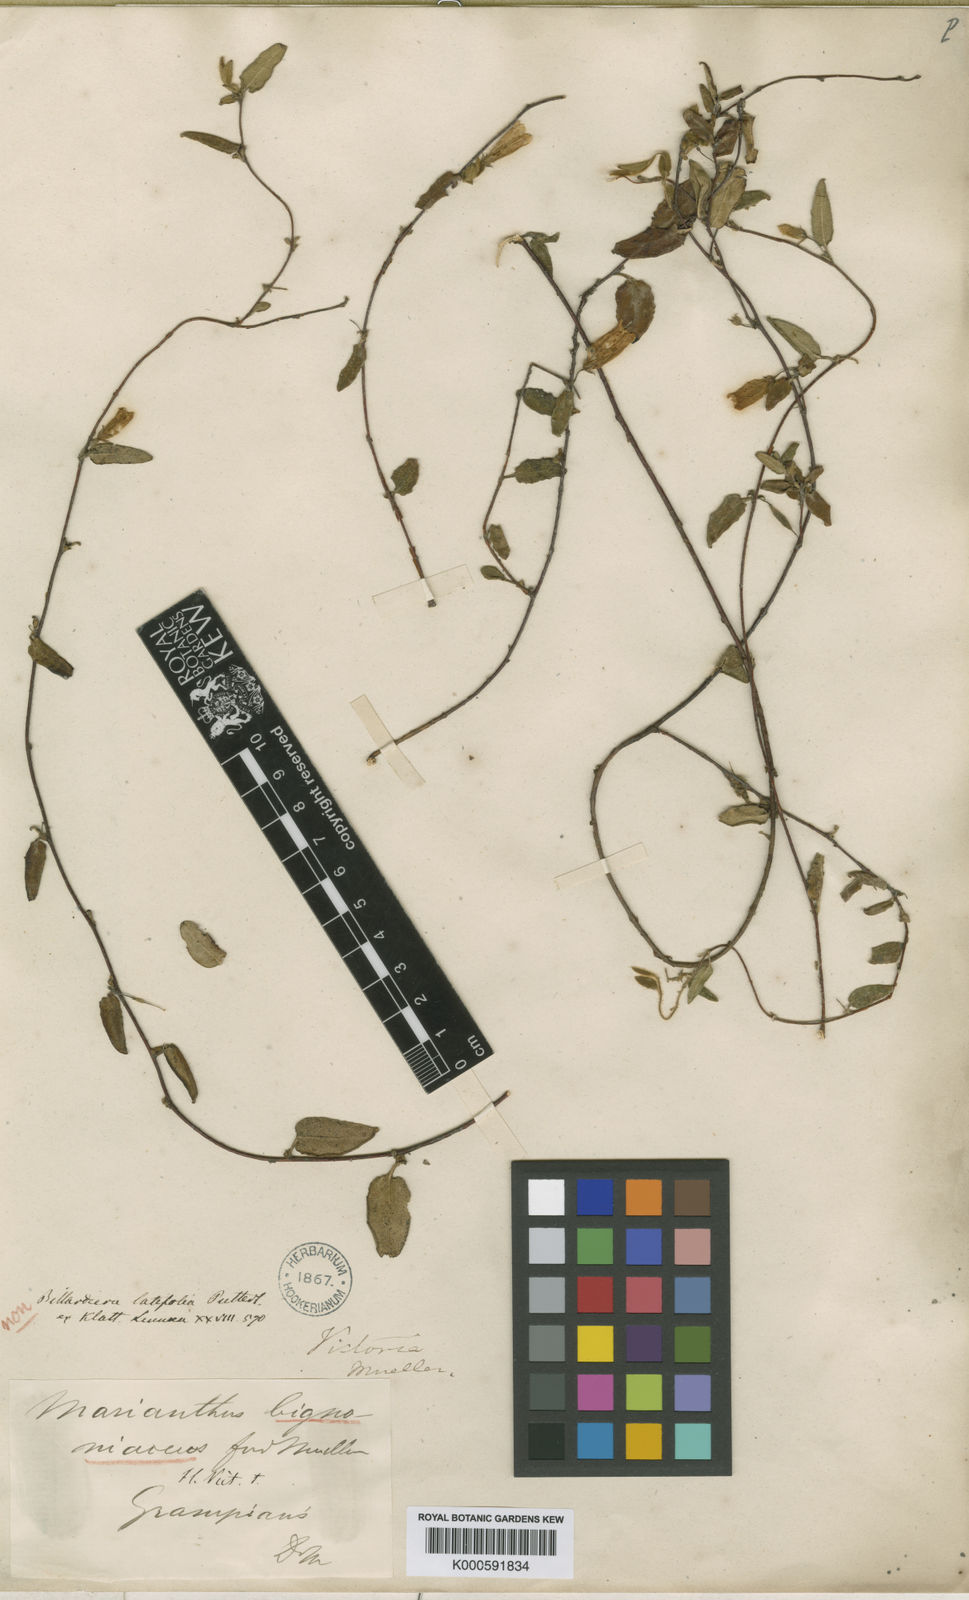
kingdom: Plantae
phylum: Tracheophyta
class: Magnoliopsida
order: Apiales
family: Pittosporaceae
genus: Marianthus
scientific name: Marianthus bignoniaceus
